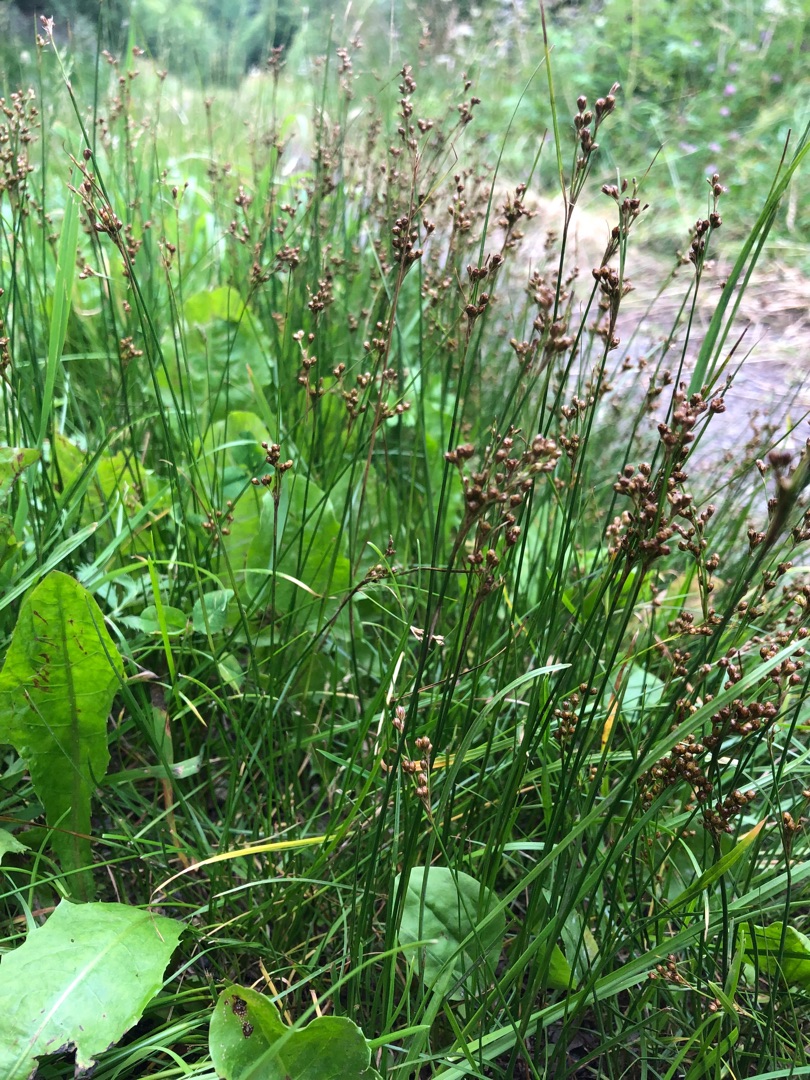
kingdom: Plantae
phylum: Tracheophyta
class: Liliopsida
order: Poales
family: Juncaceae
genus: Juncus
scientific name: Juncus compressus
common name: Fladstrået siv
